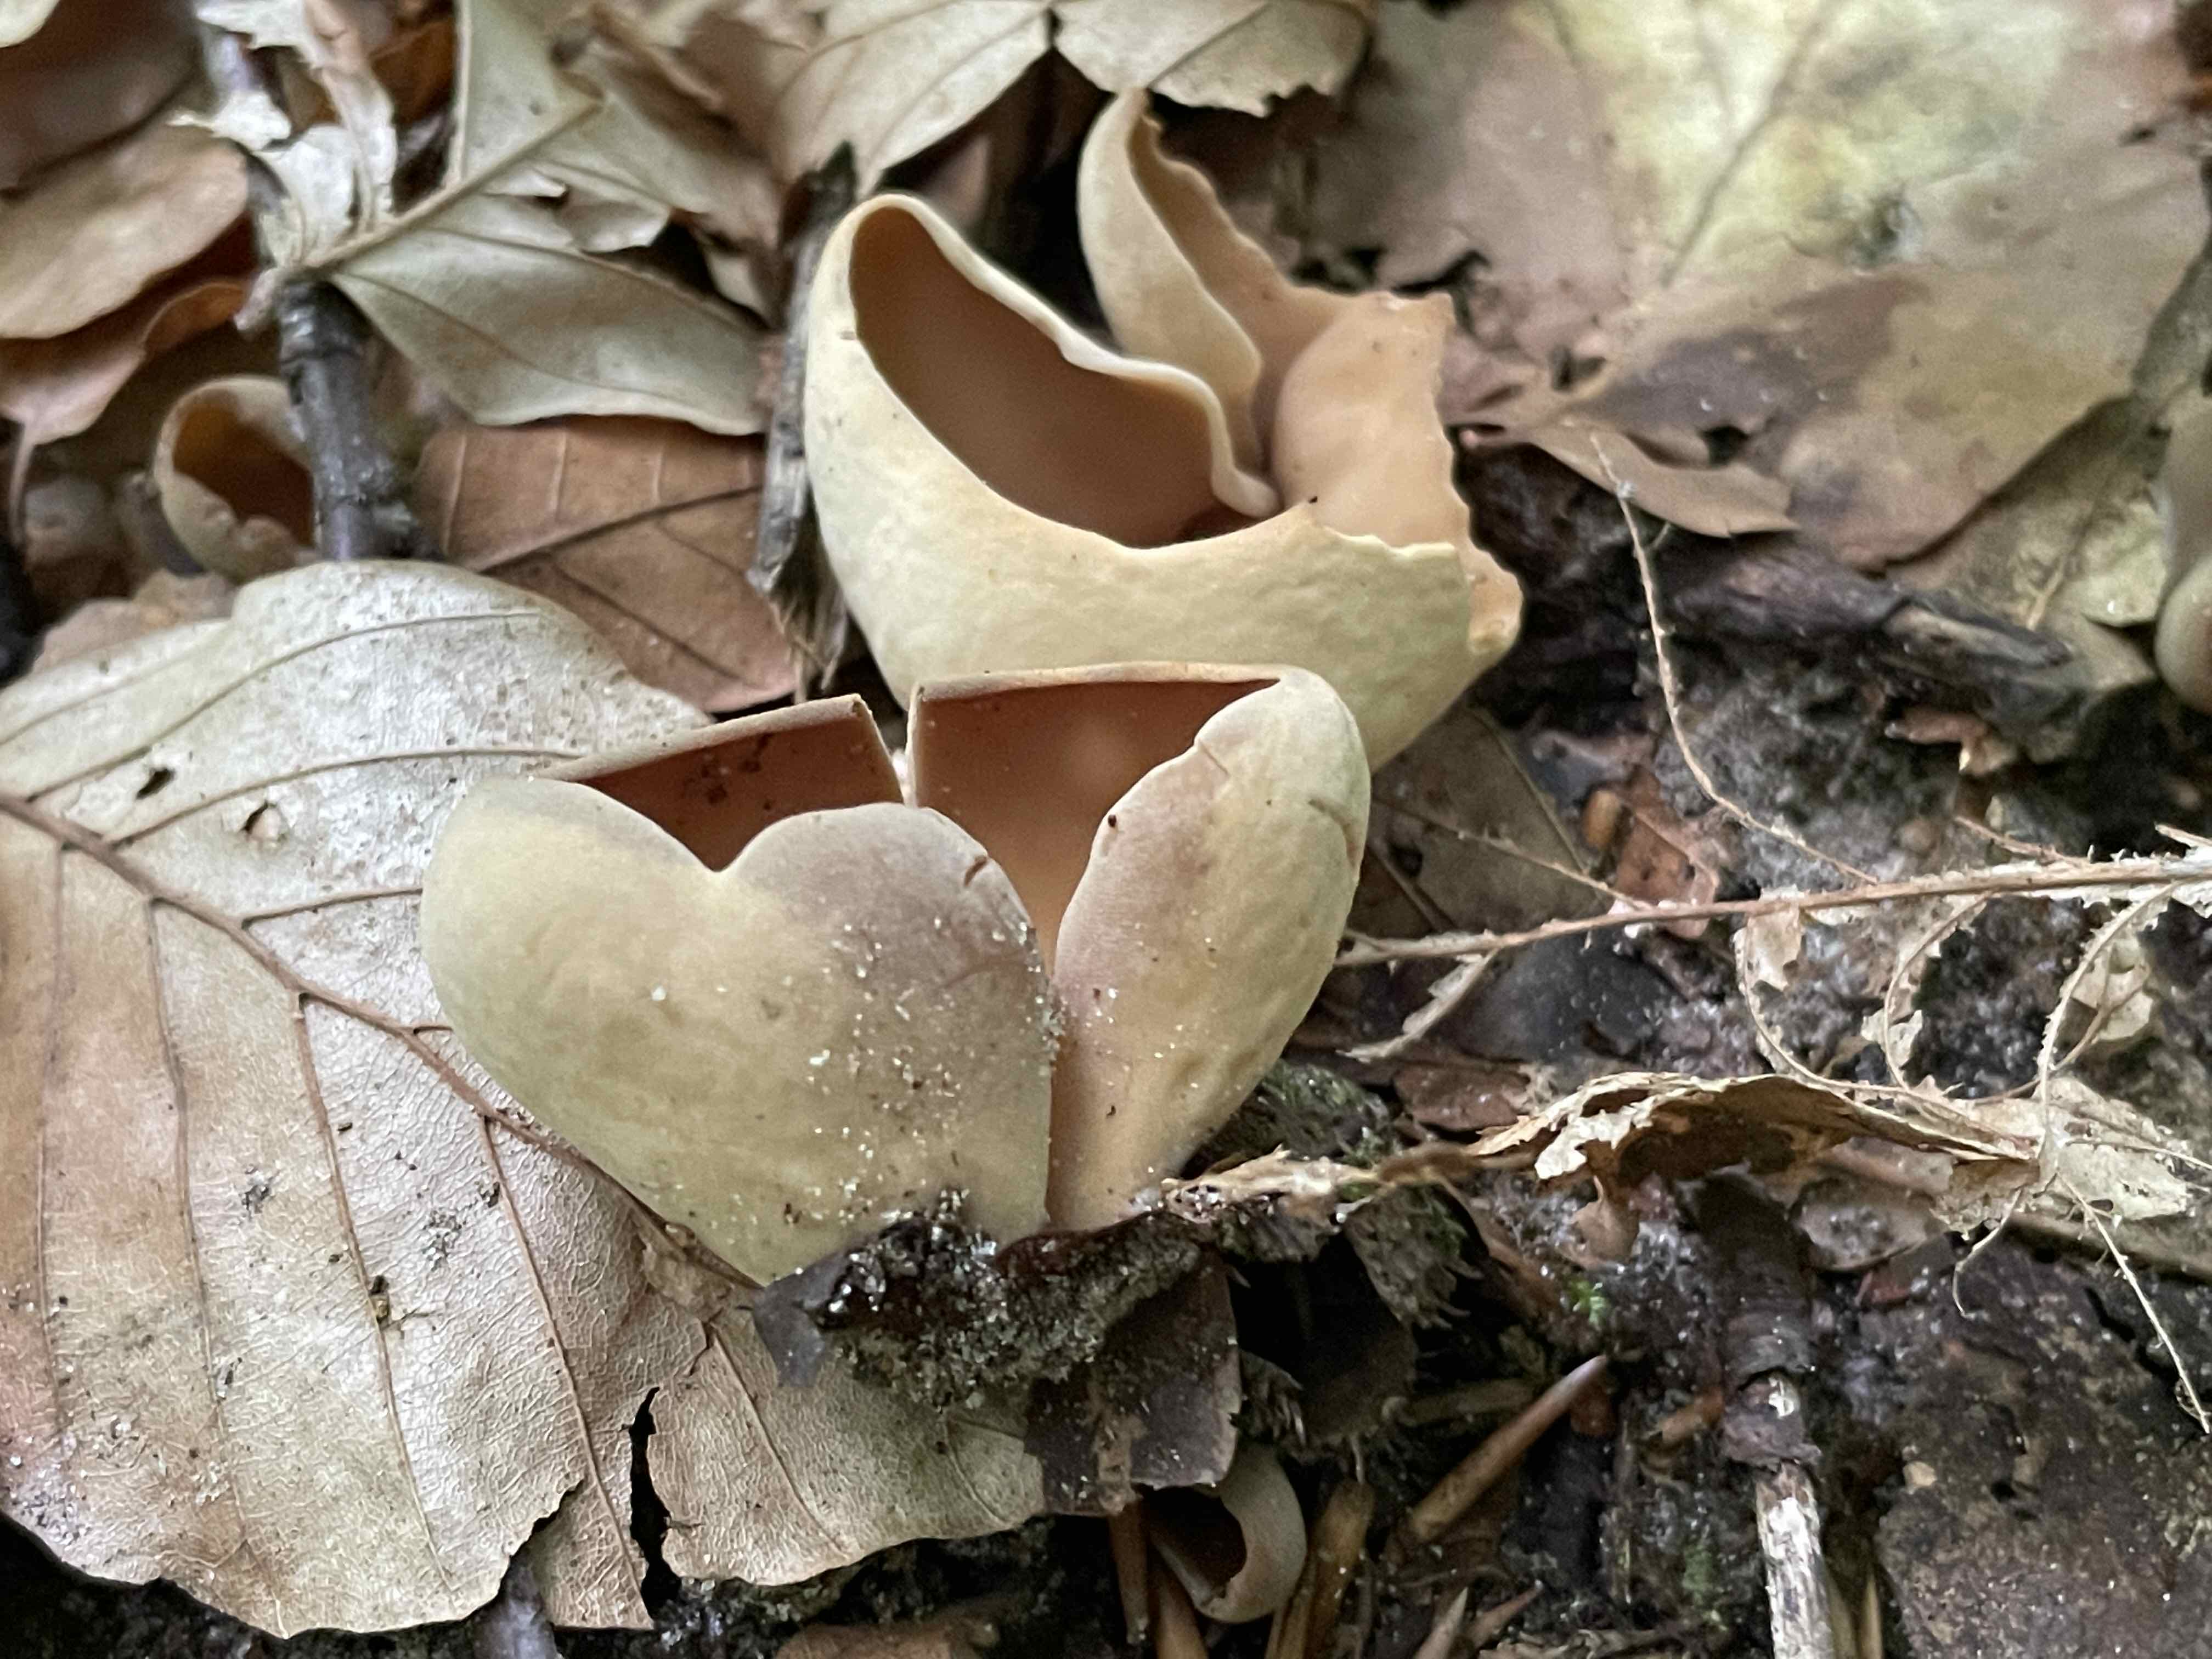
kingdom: Fungi
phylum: Ascomycota
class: Pezizomycetes
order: Pezizales
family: Otideaceae
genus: Otidea
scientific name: Otidea alutacea
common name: læder-ørebæger
